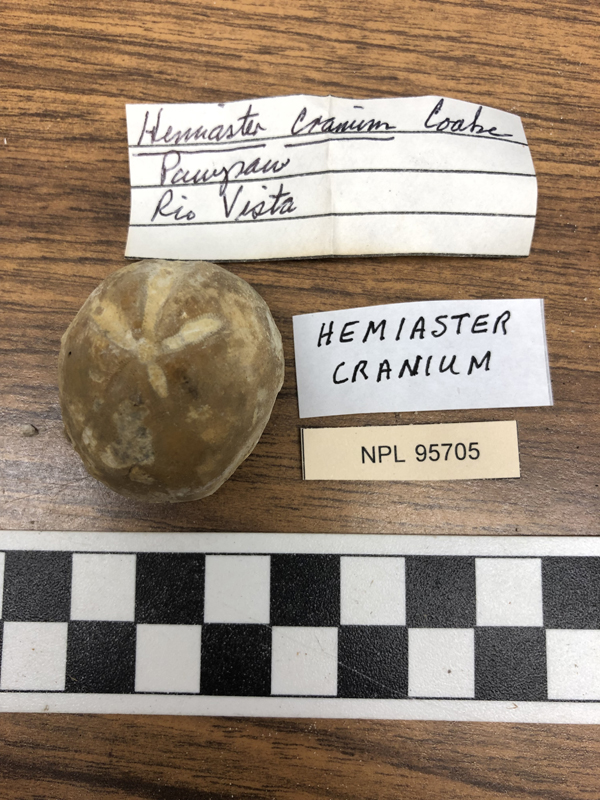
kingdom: Animalia
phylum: Echinodermata
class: Echinoidea
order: Spatangoida
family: Hemiasteridae
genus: Hemiaster
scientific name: Hemiaster cranium
